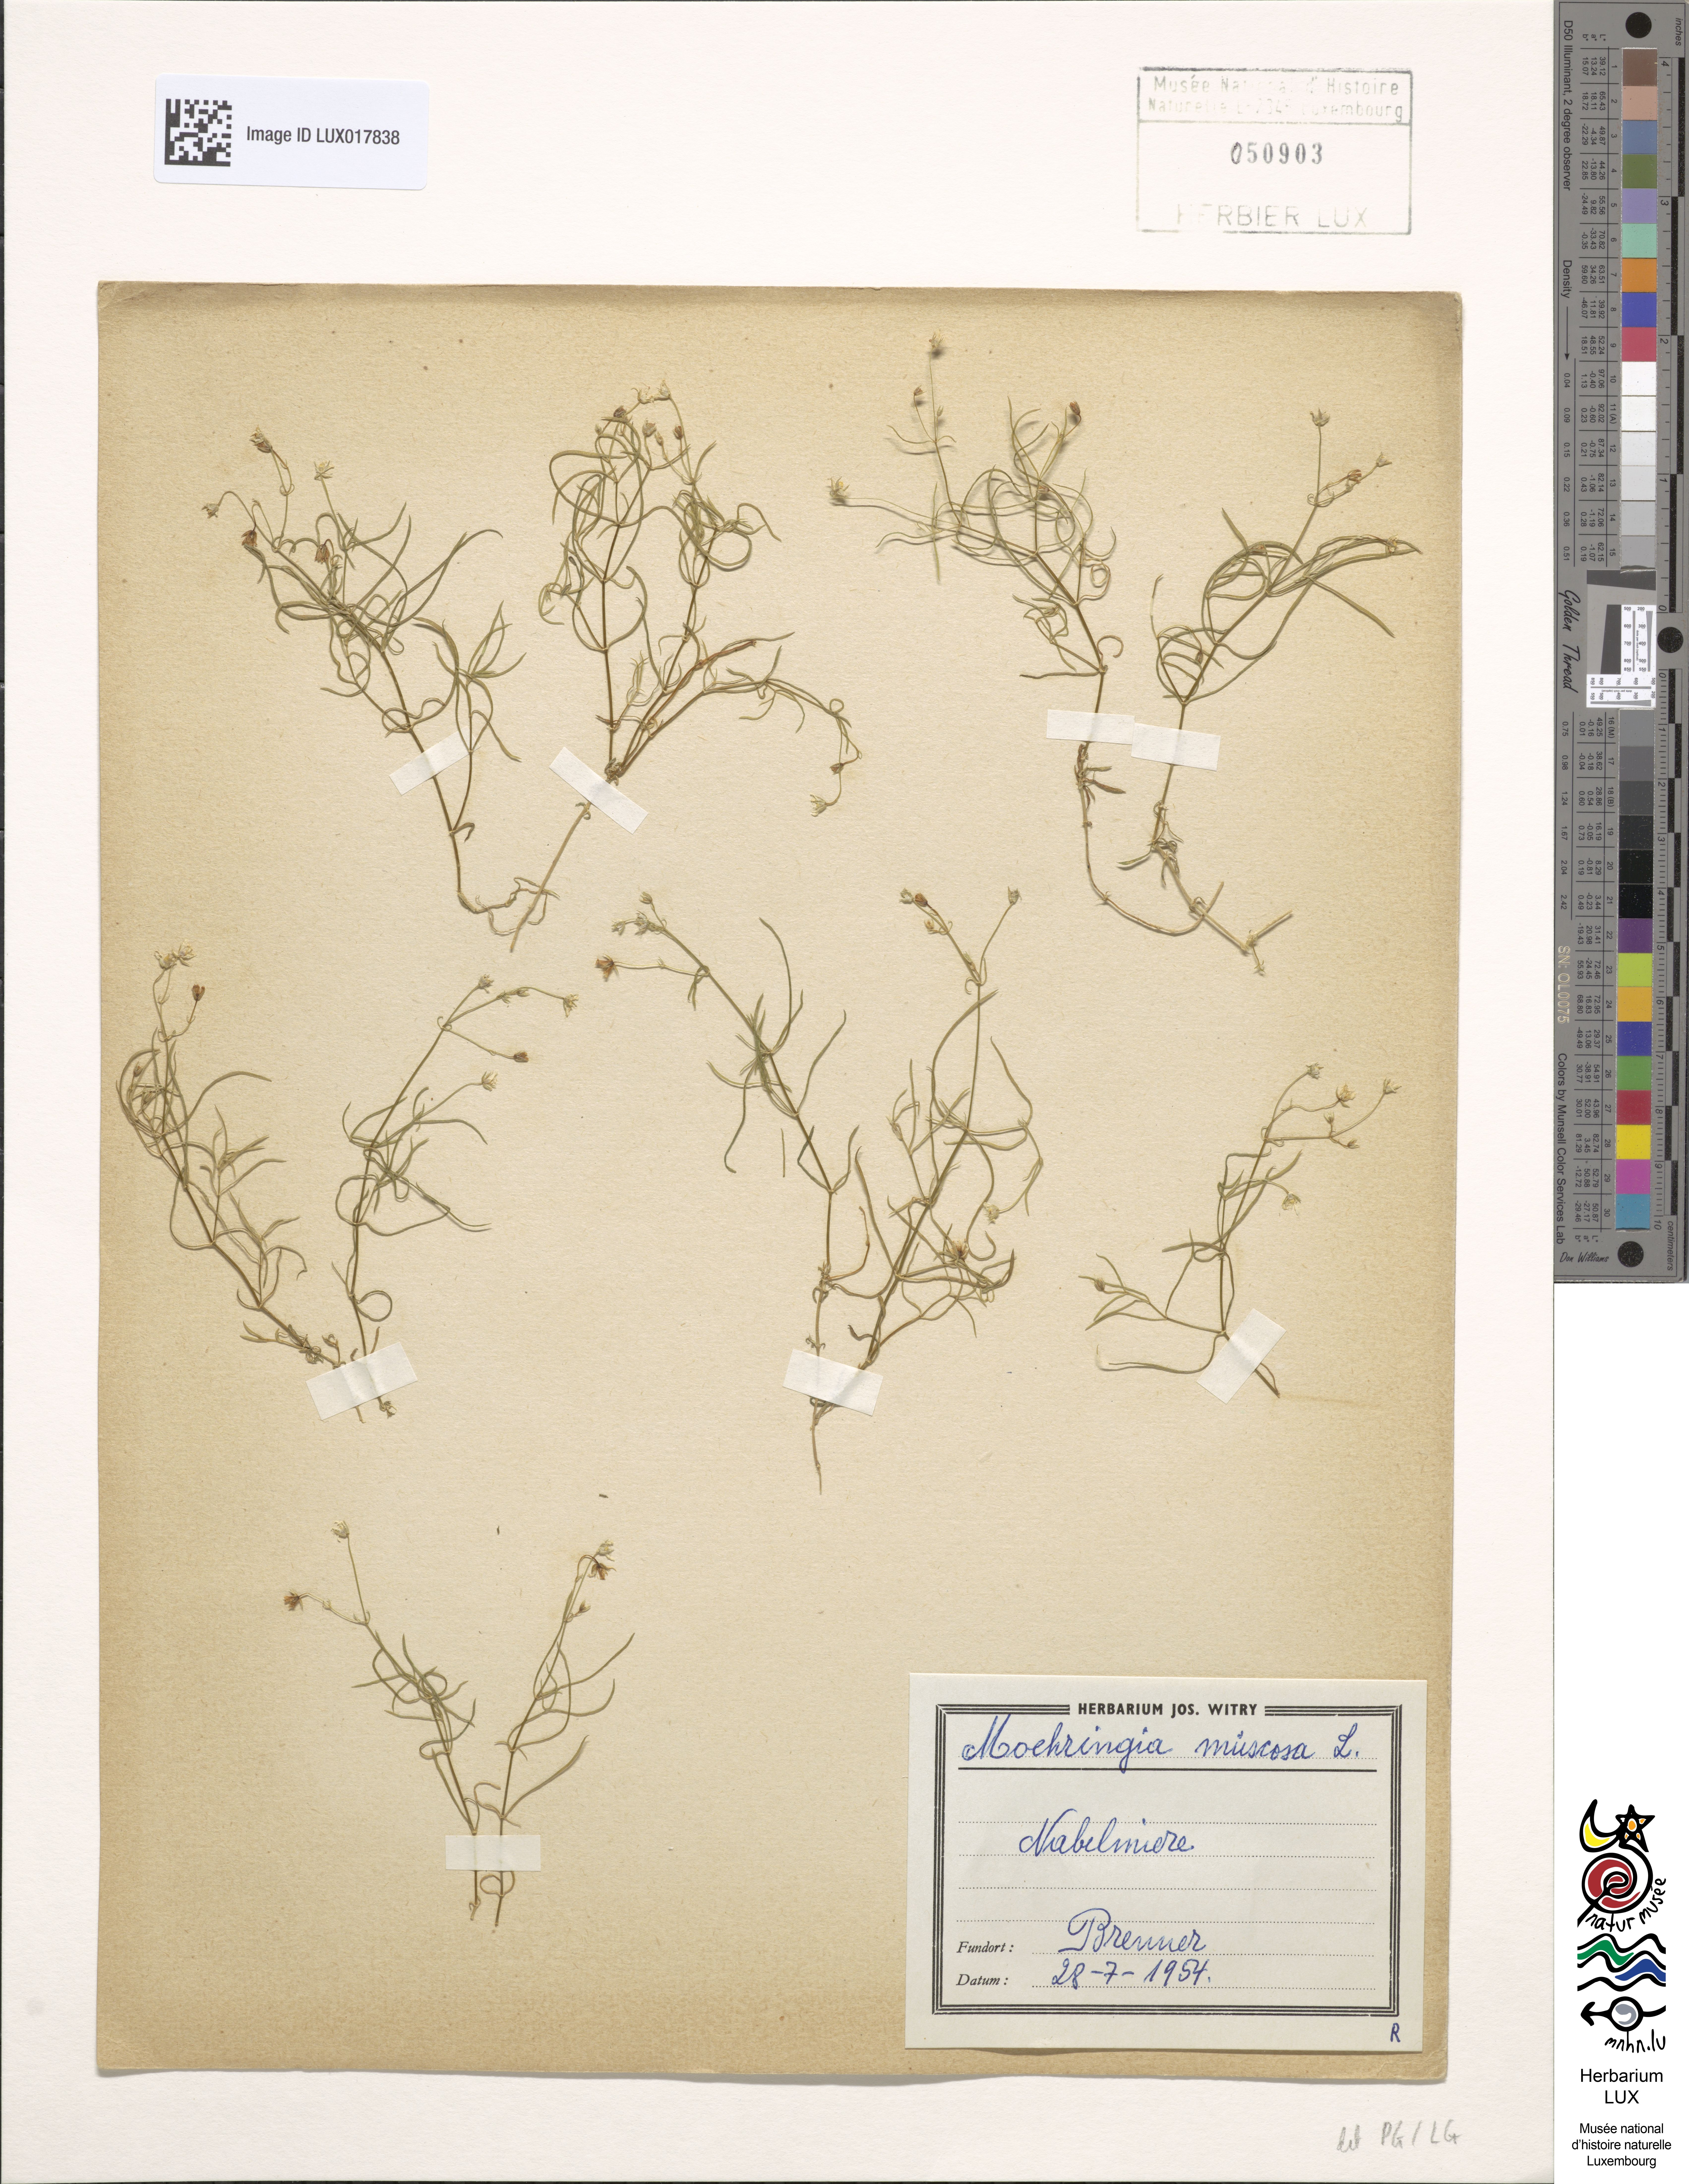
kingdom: Plantae
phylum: Tracheophyta
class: Magnoliopsida
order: Caryophyllales
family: Caryophyllaceae
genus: Moehringia
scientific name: Moehringia muscosa
